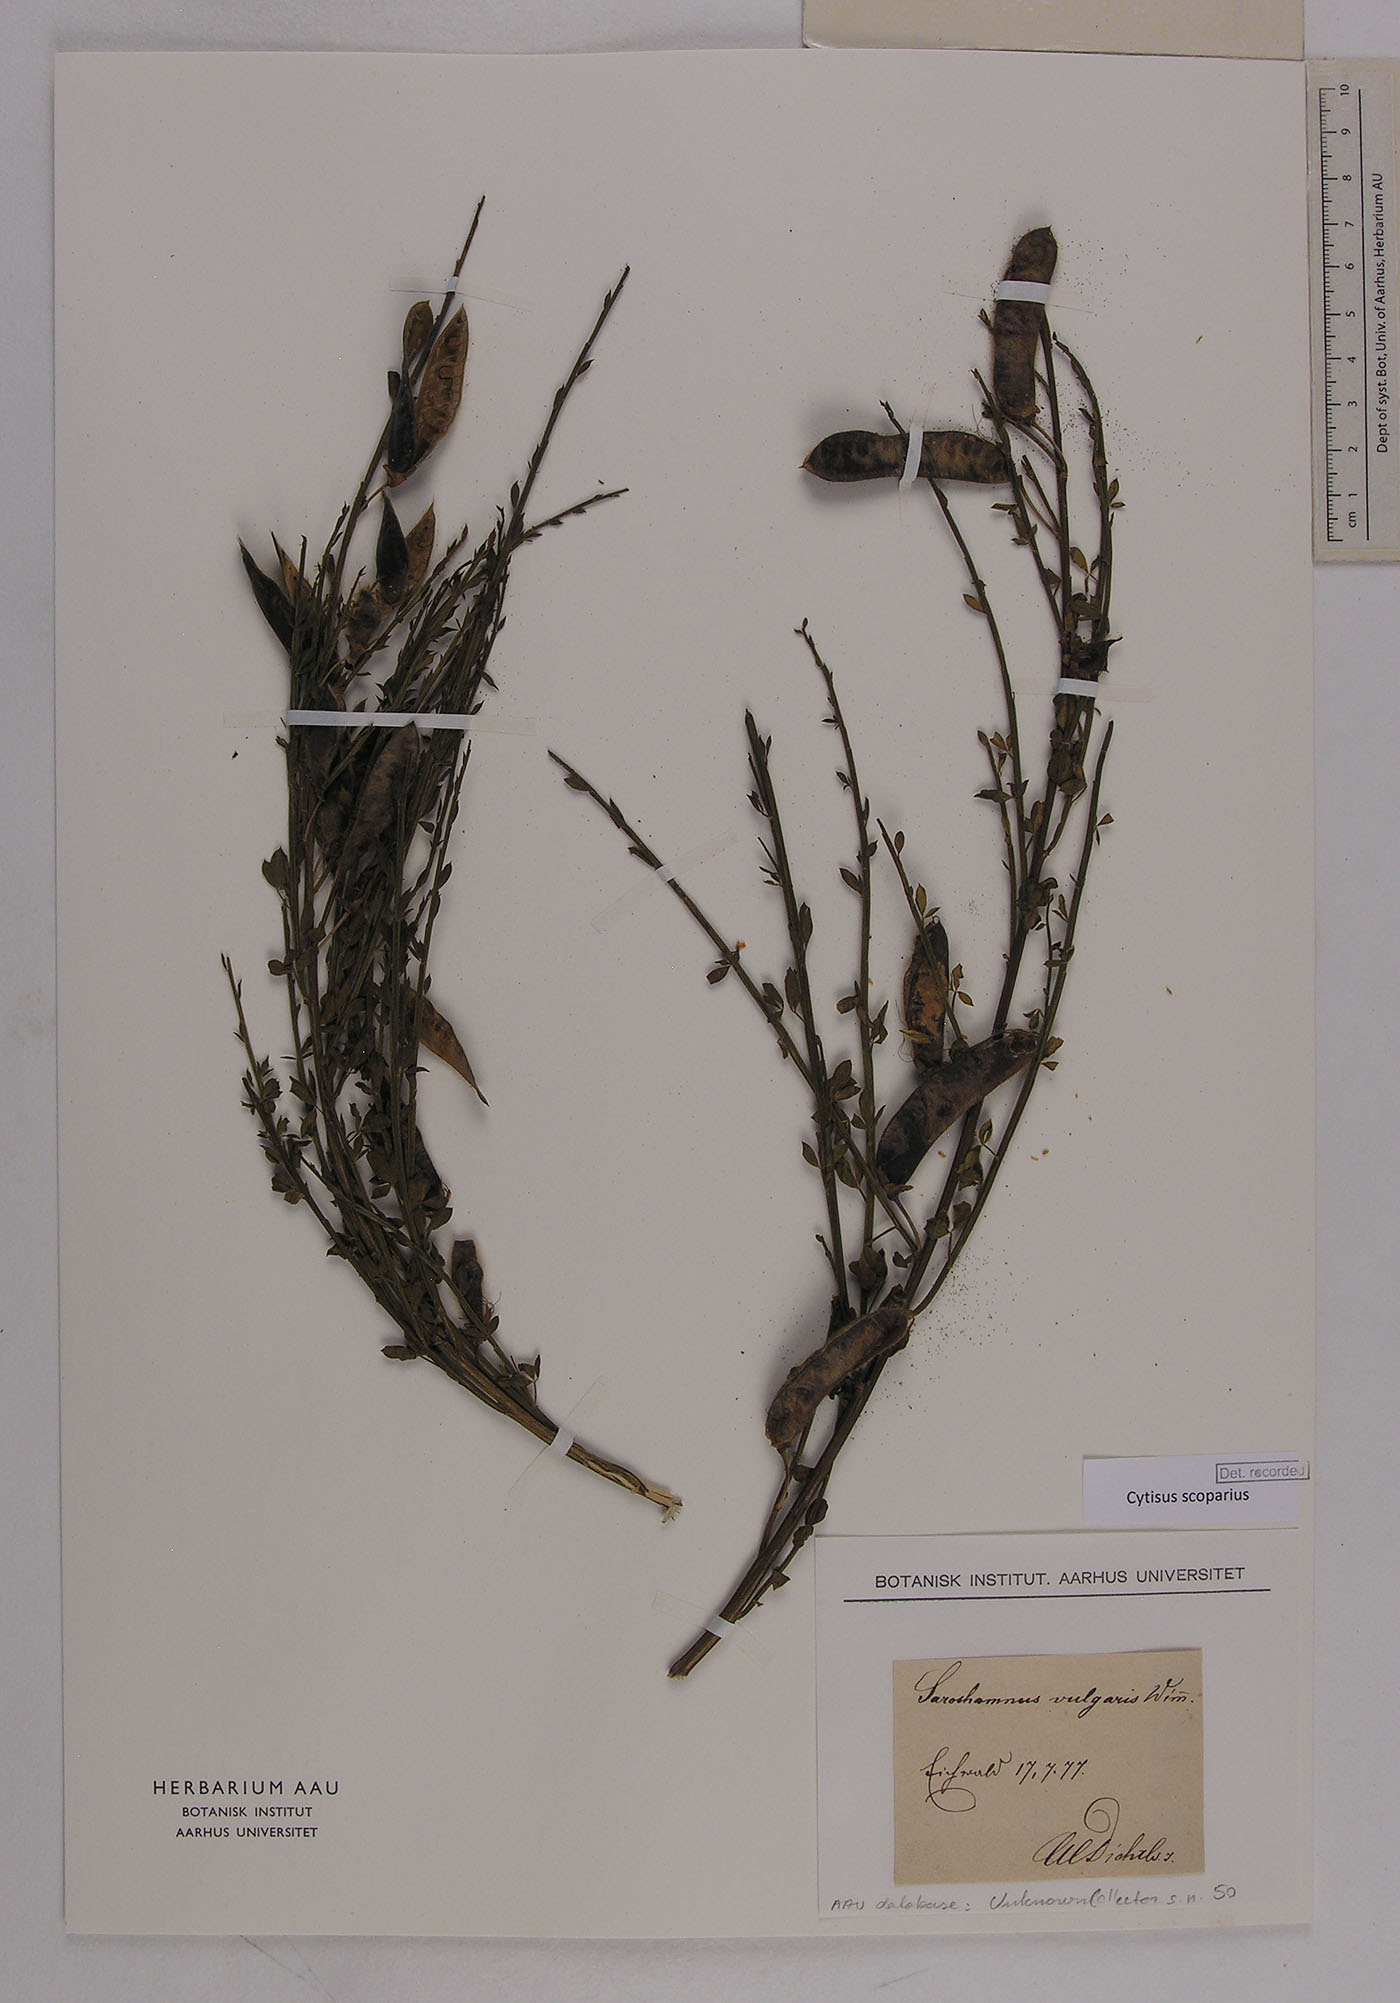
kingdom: Plantae
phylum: Tracheophyta
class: Magnoliopsida
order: Fabales
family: Fabaceae
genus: Cytisus
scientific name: Cytisus scoparius
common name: Scotch broom
